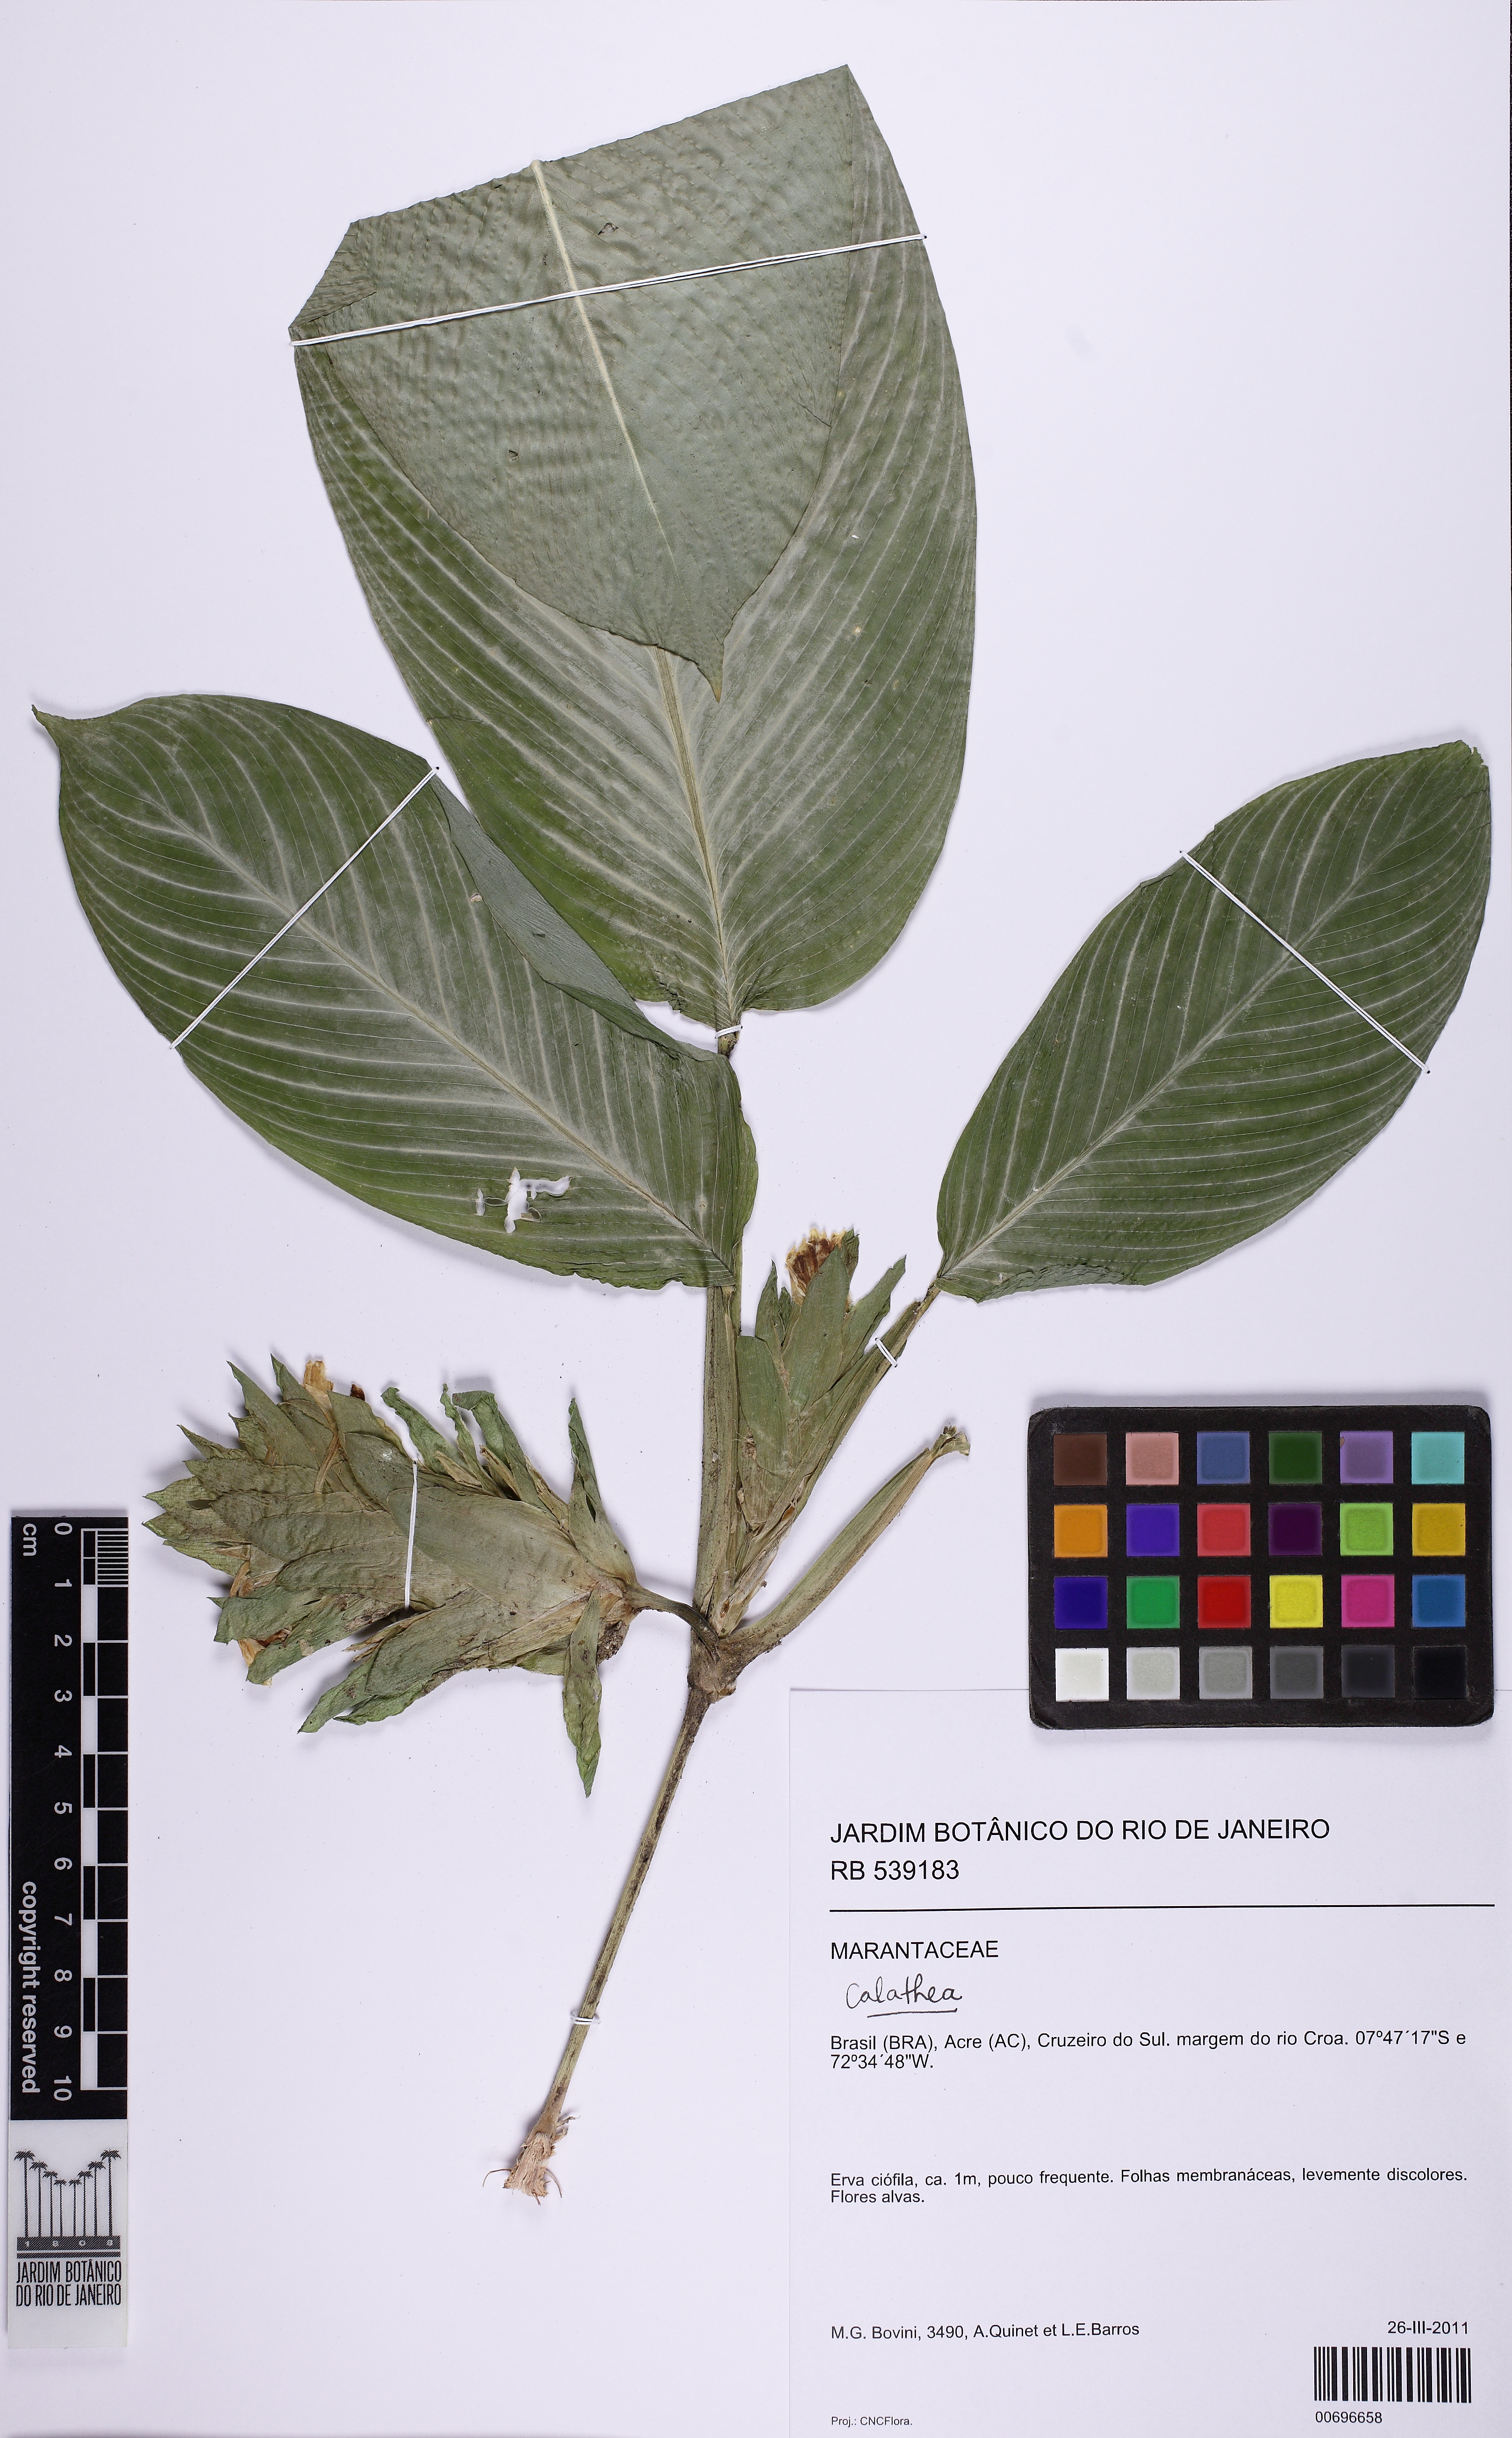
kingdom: Plantae
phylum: Tracheophyta
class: Liliopsida
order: Zingiberales
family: Marantaceae
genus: Goeppertia
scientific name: Goeppertia poeppigiana
